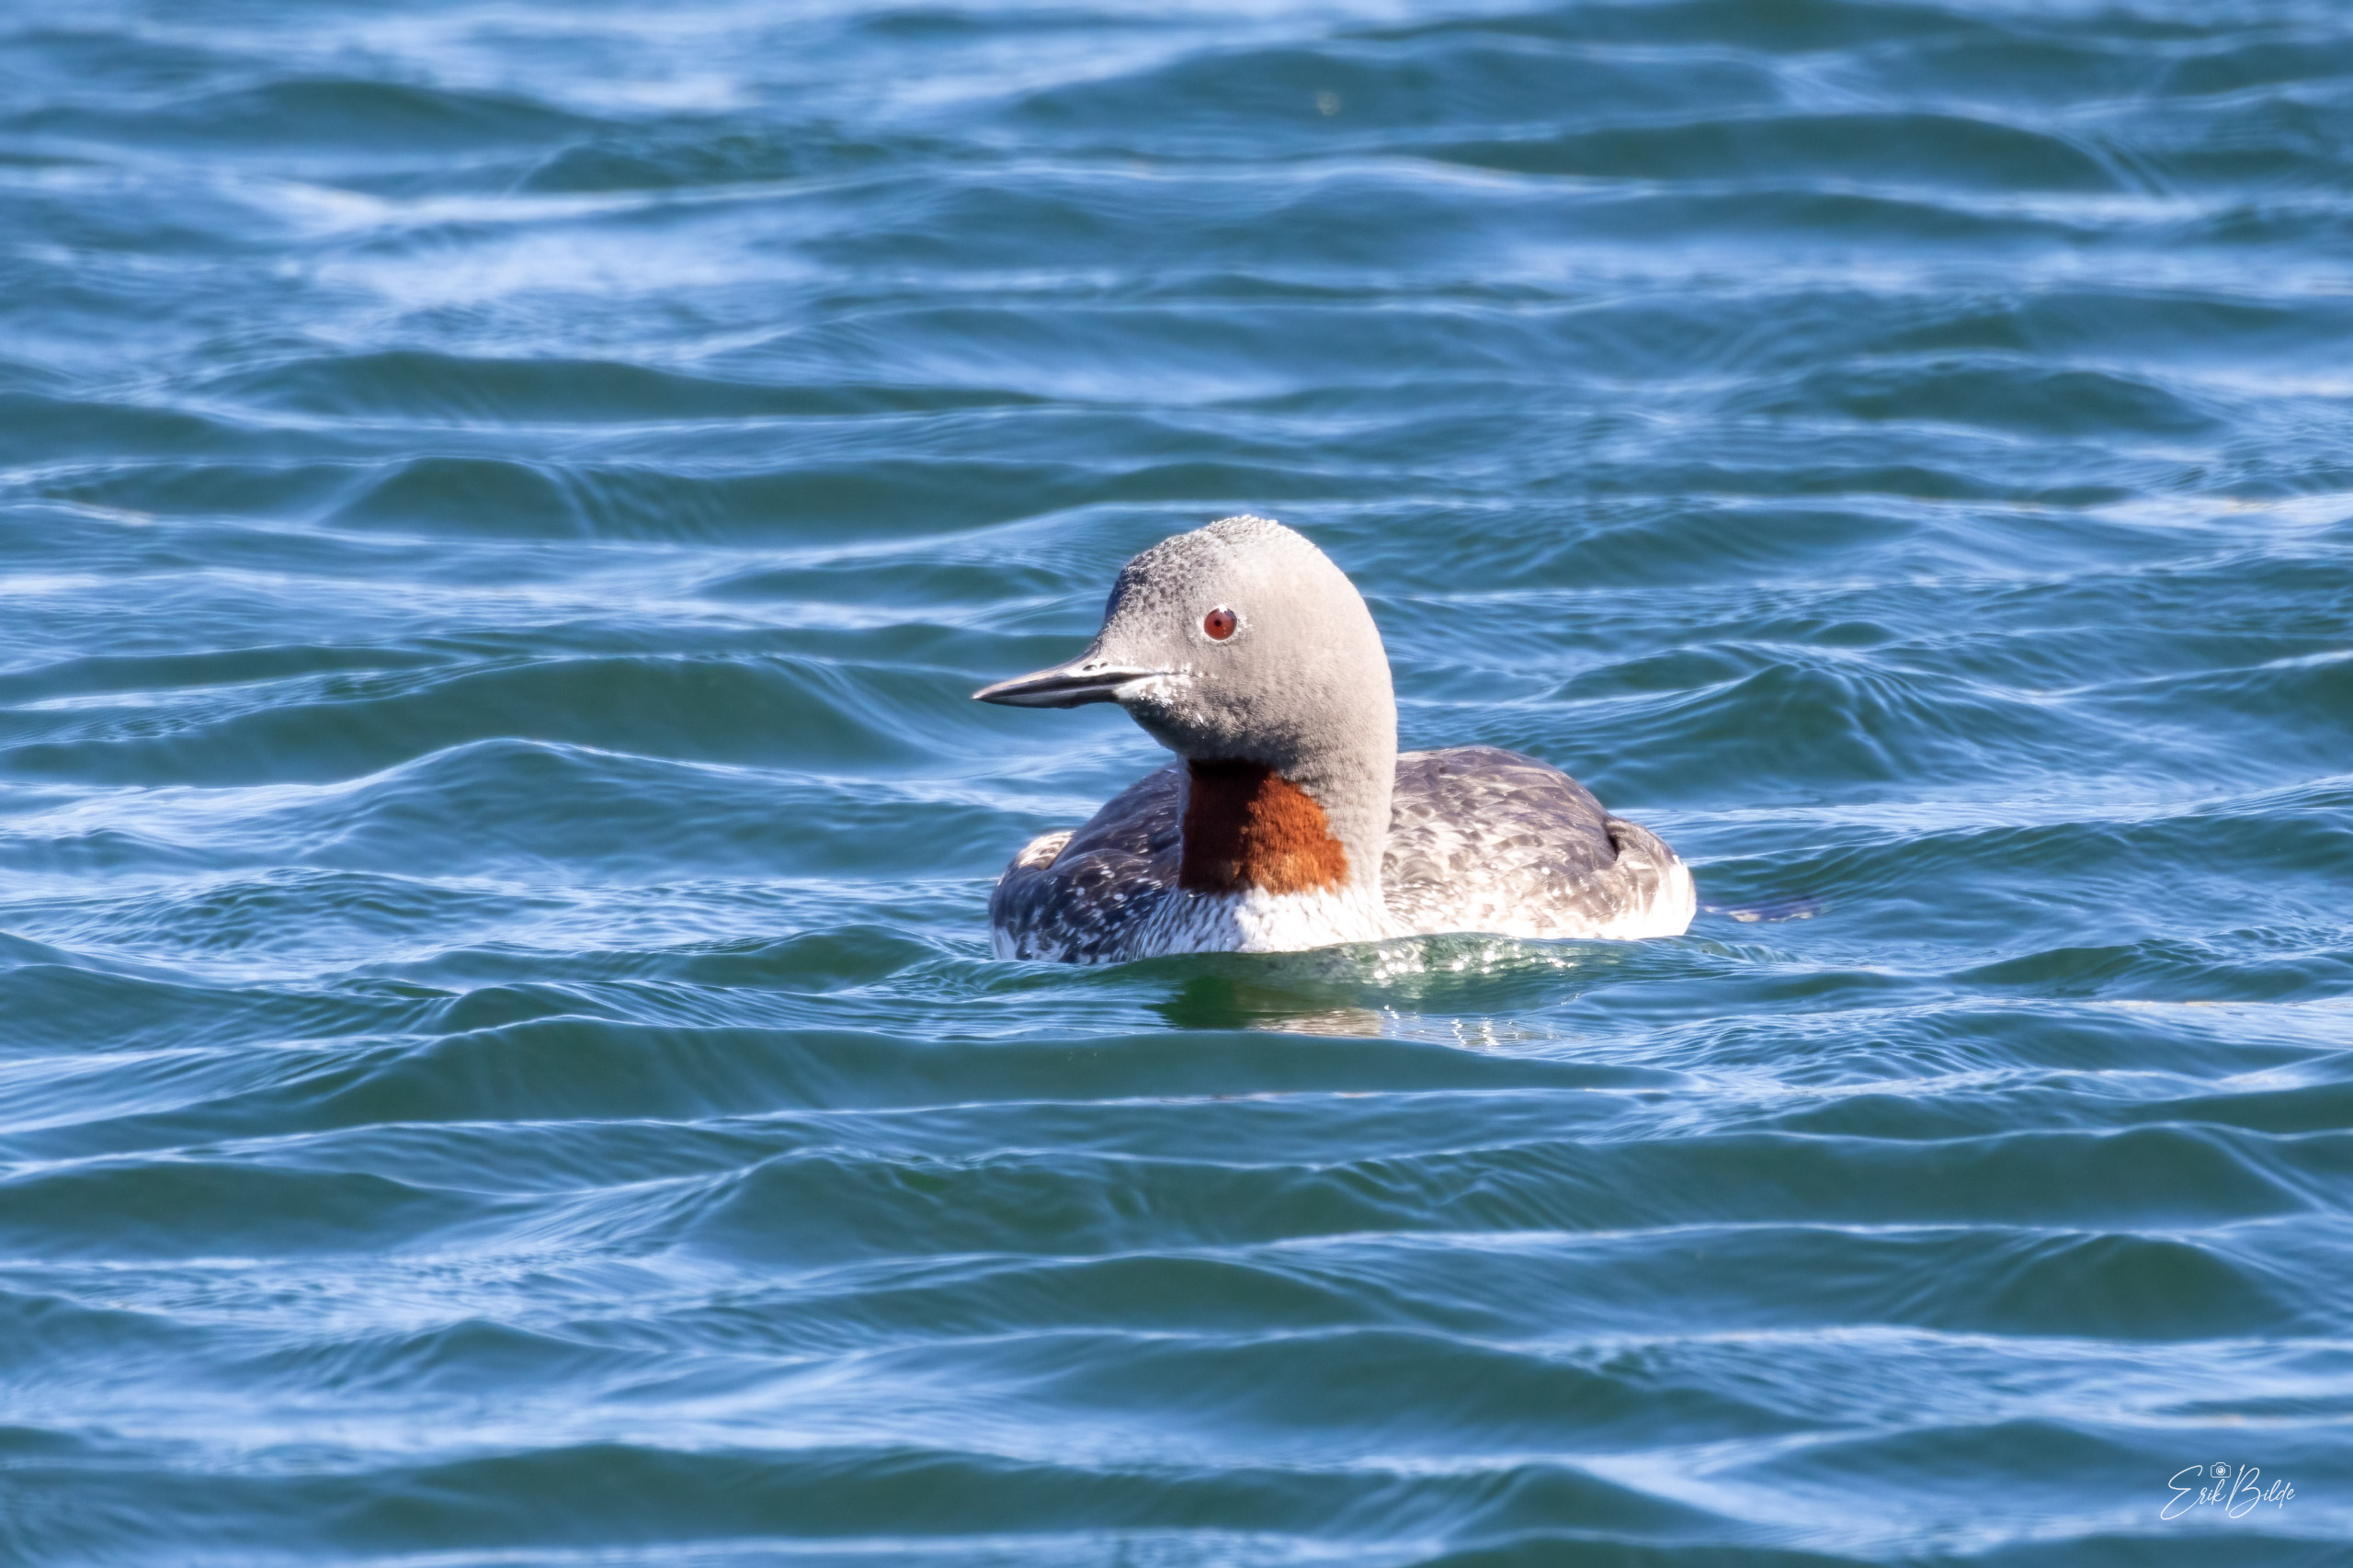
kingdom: Animalia
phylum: Chordata
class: Aves
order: Gaviiformes
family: Gaviidae
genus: Gavia
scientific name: Gavia stellata
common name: Rødstrubet lom
